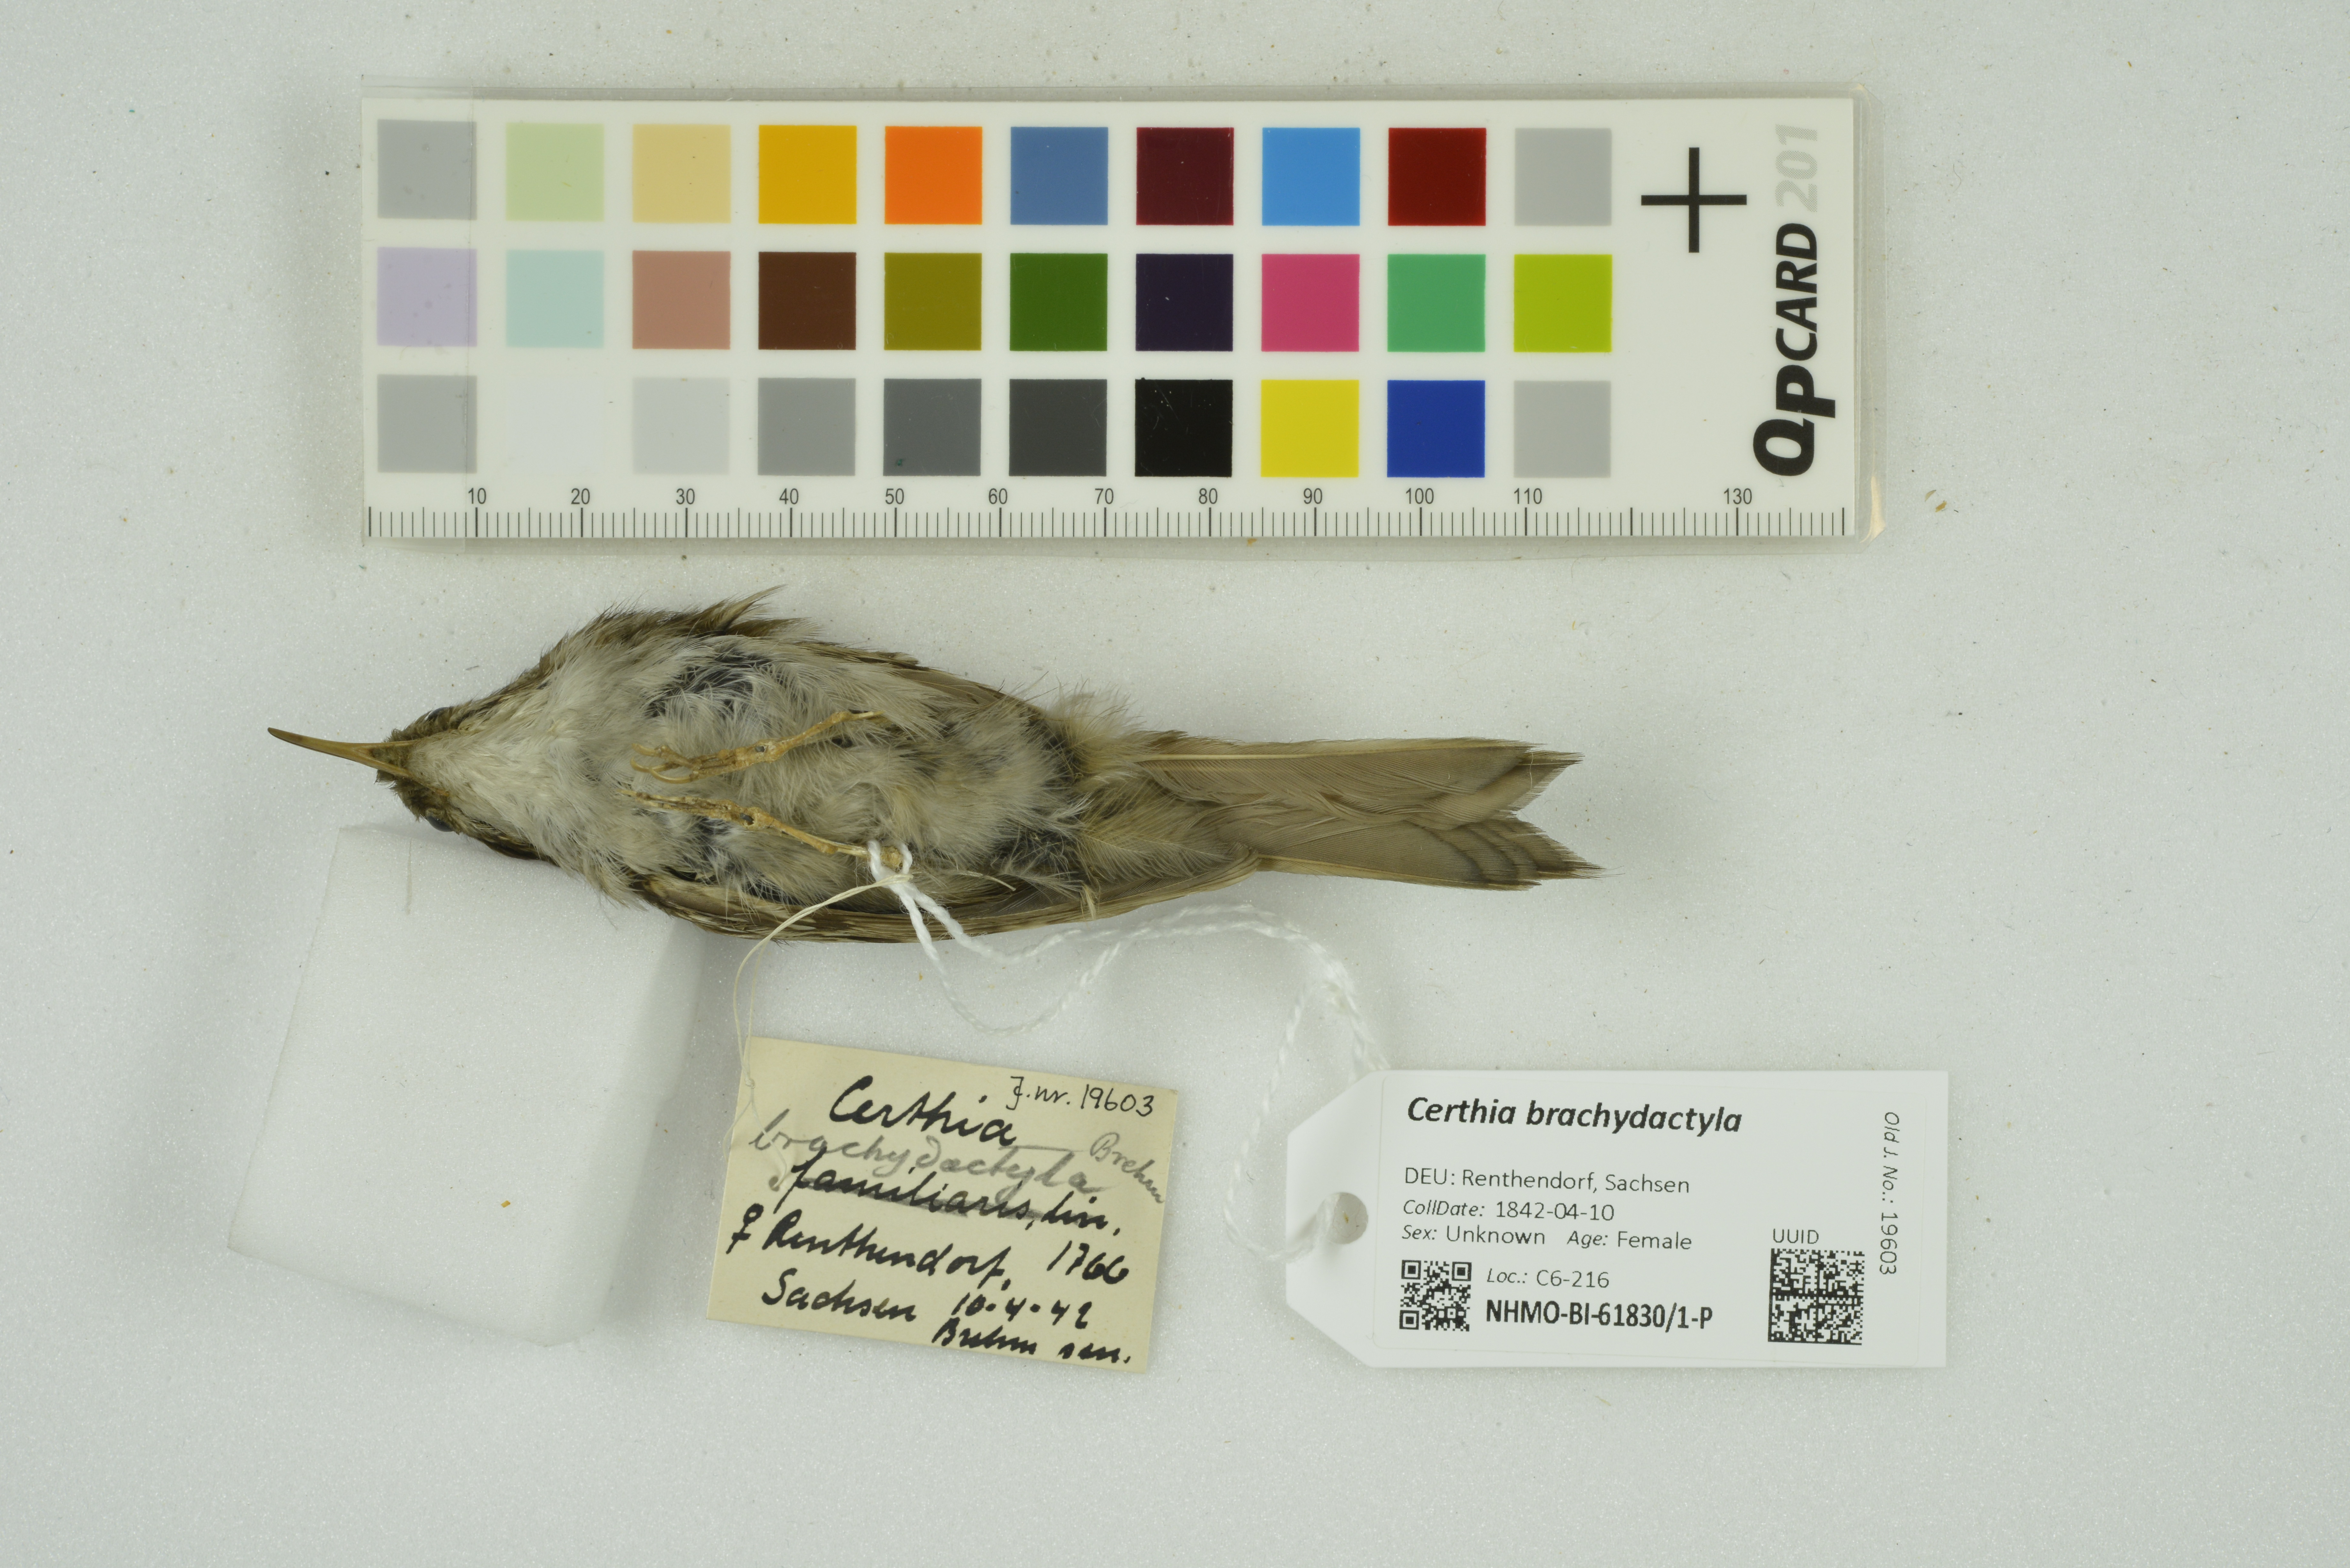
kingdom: Animalia
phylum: Chordata
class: Aves
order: Passeriformes
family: Certhiidae
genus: Certhia
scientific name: Certhia brachydactyla
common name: Short-toed treecreeper
